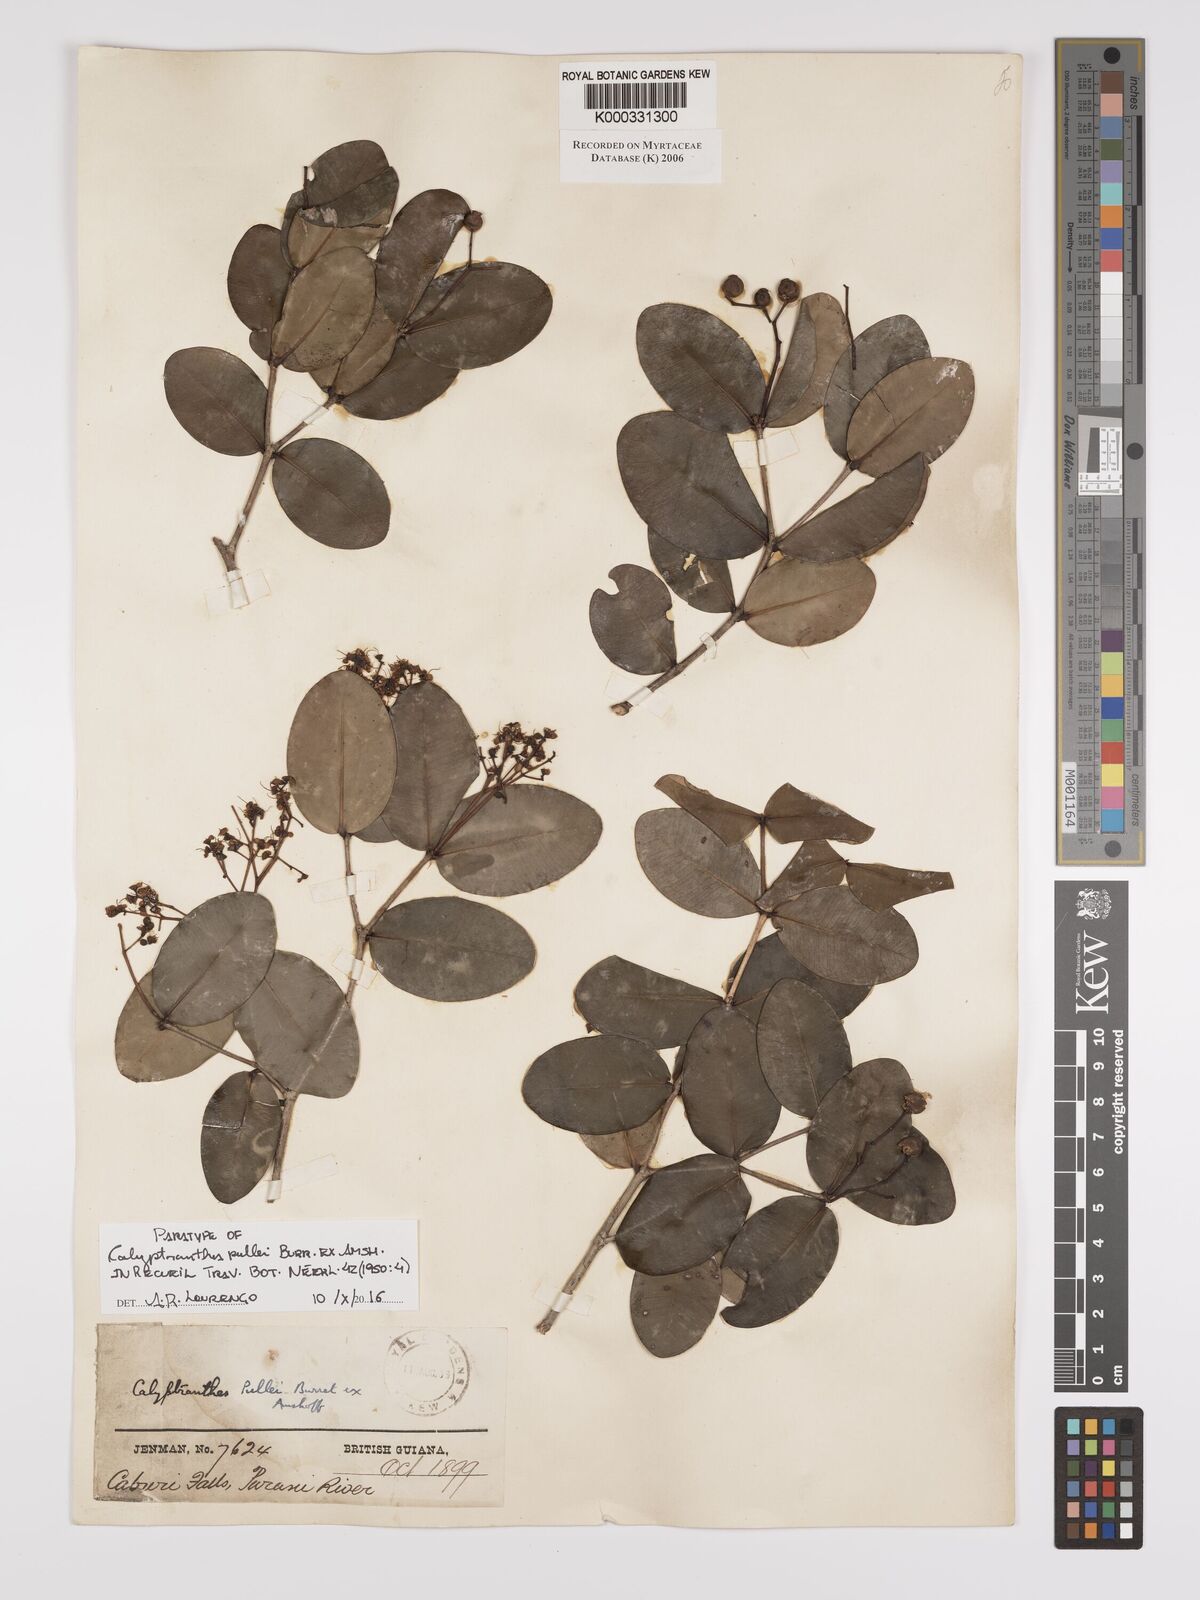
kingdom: Plantae
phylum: Tracheophyta
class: Magnoliopsida
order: Myrtales
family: Myrtaceae
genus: Myrcia
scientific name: Myrcia pullei
